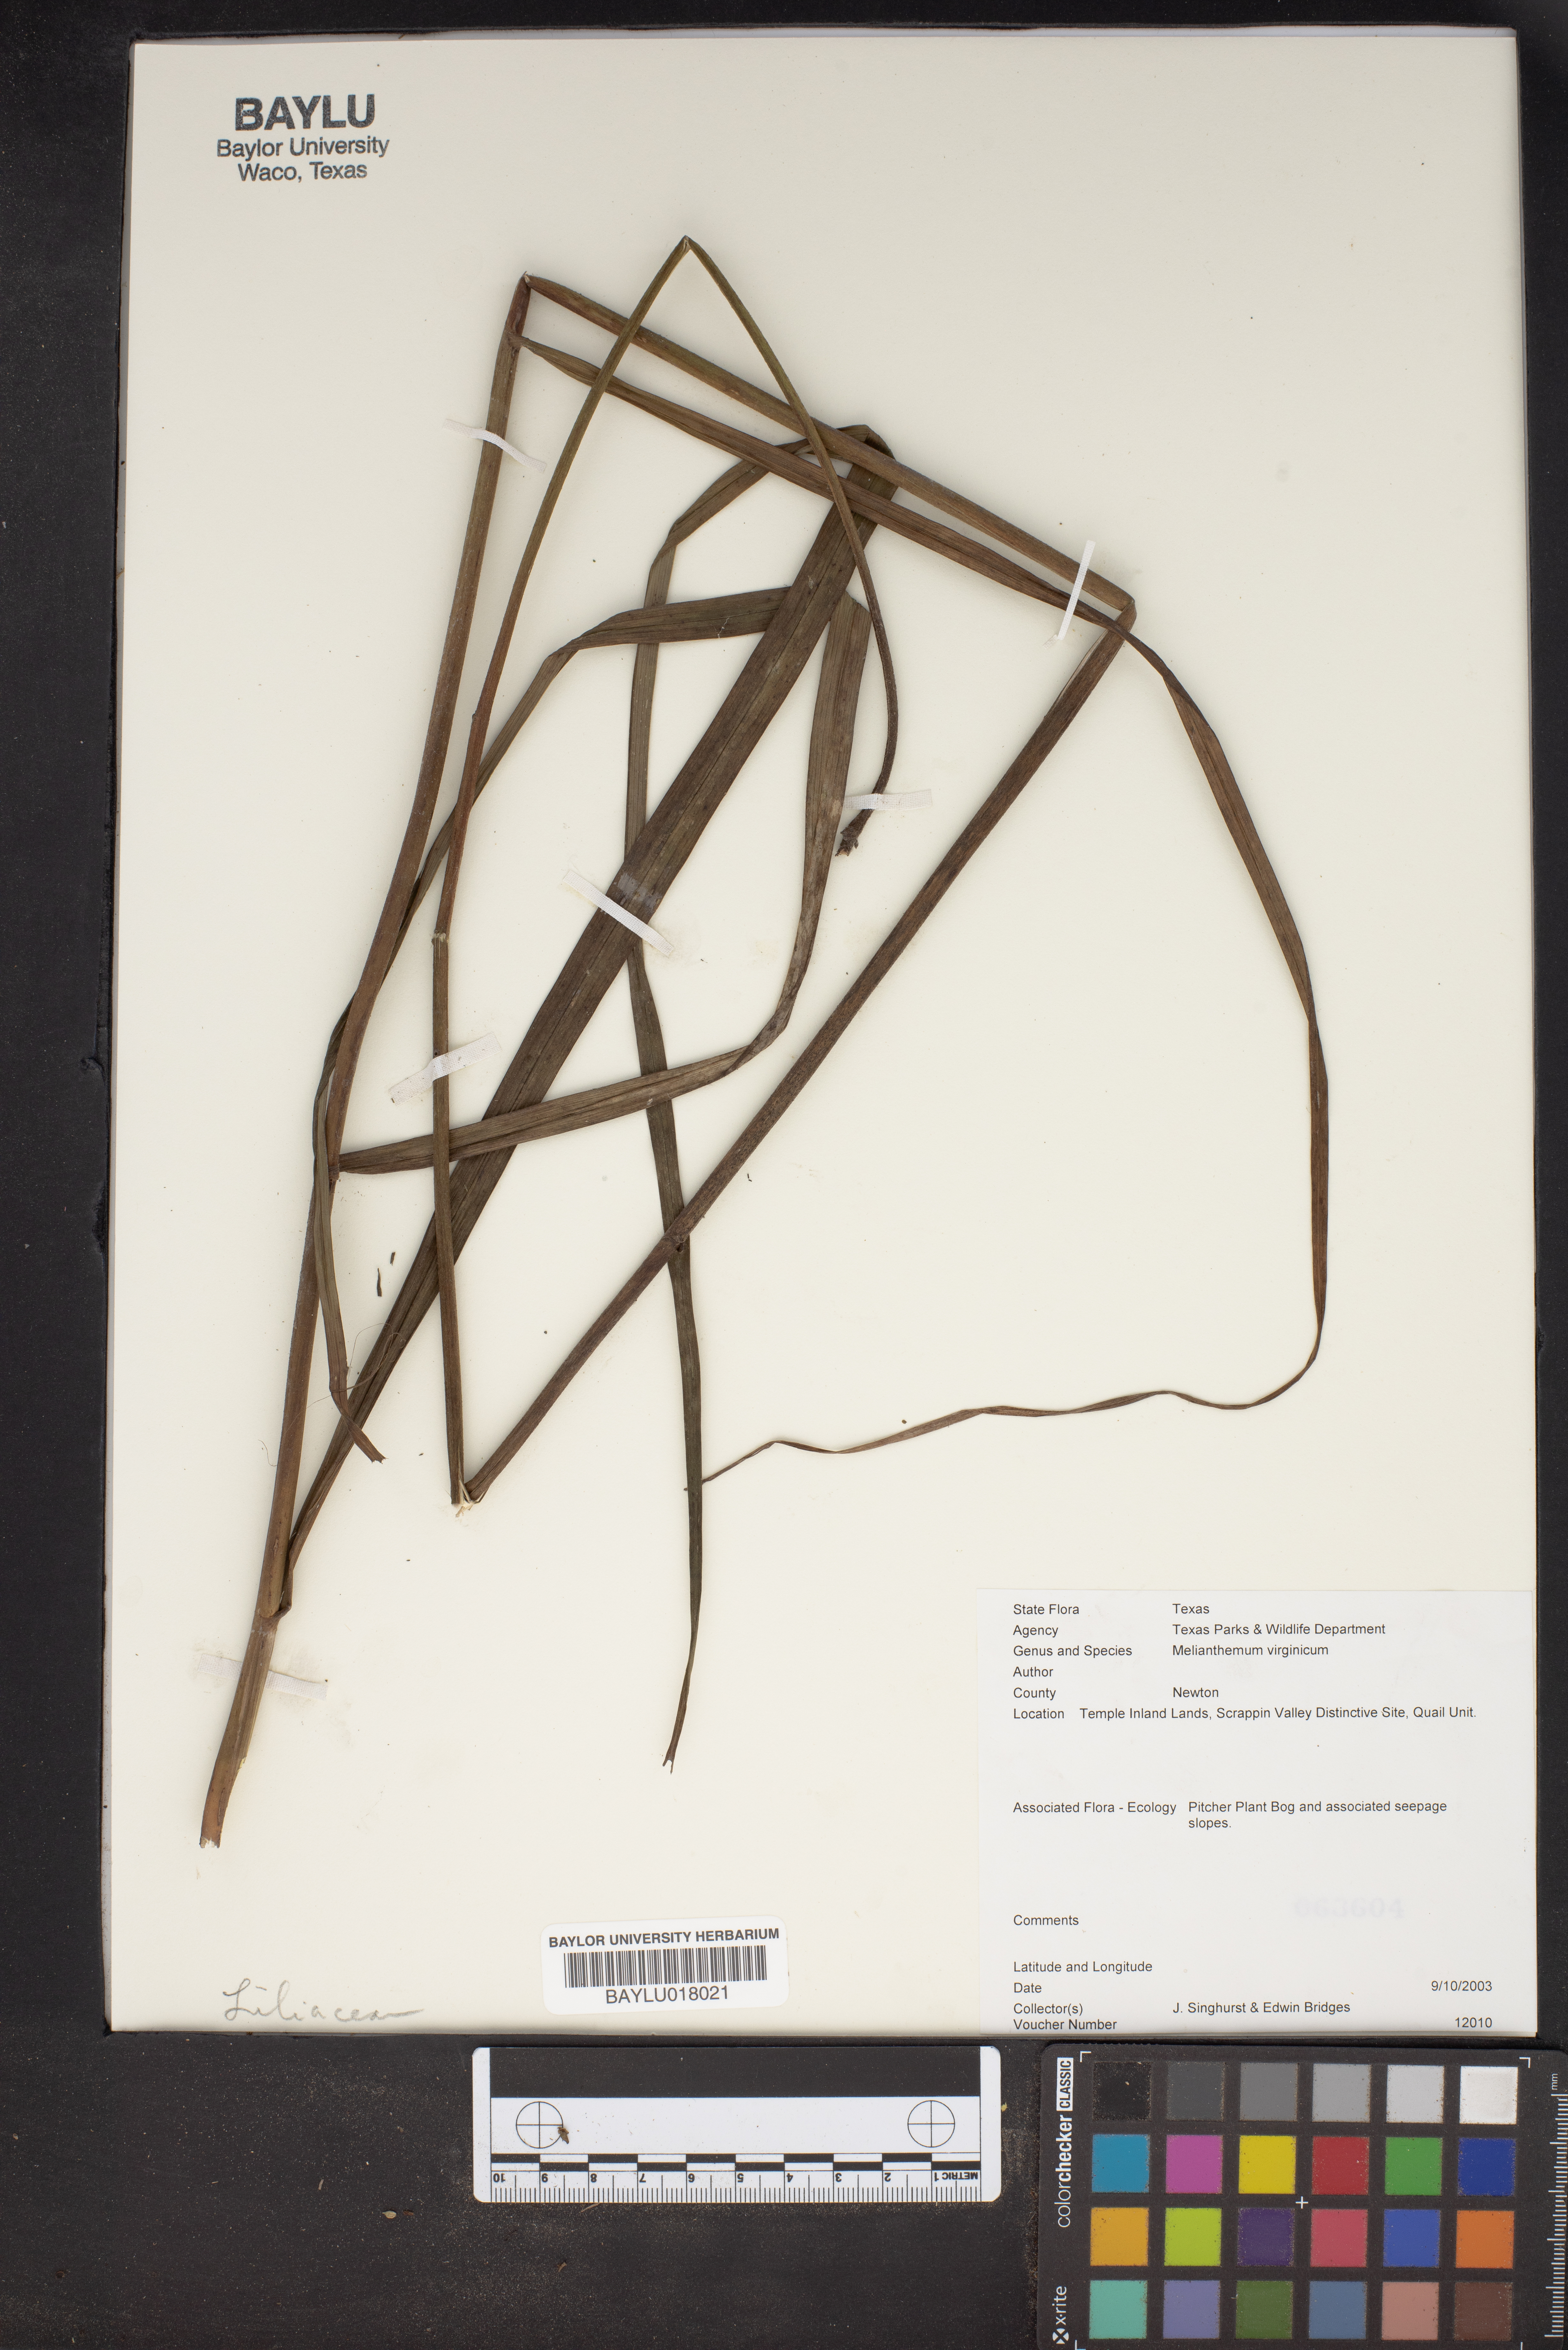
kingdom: Plantae
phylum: Tracheophyta
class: Liliopsida
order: Liliales
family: Melanthiaceae
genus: Melanthium
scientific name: Melanthium virginicum
